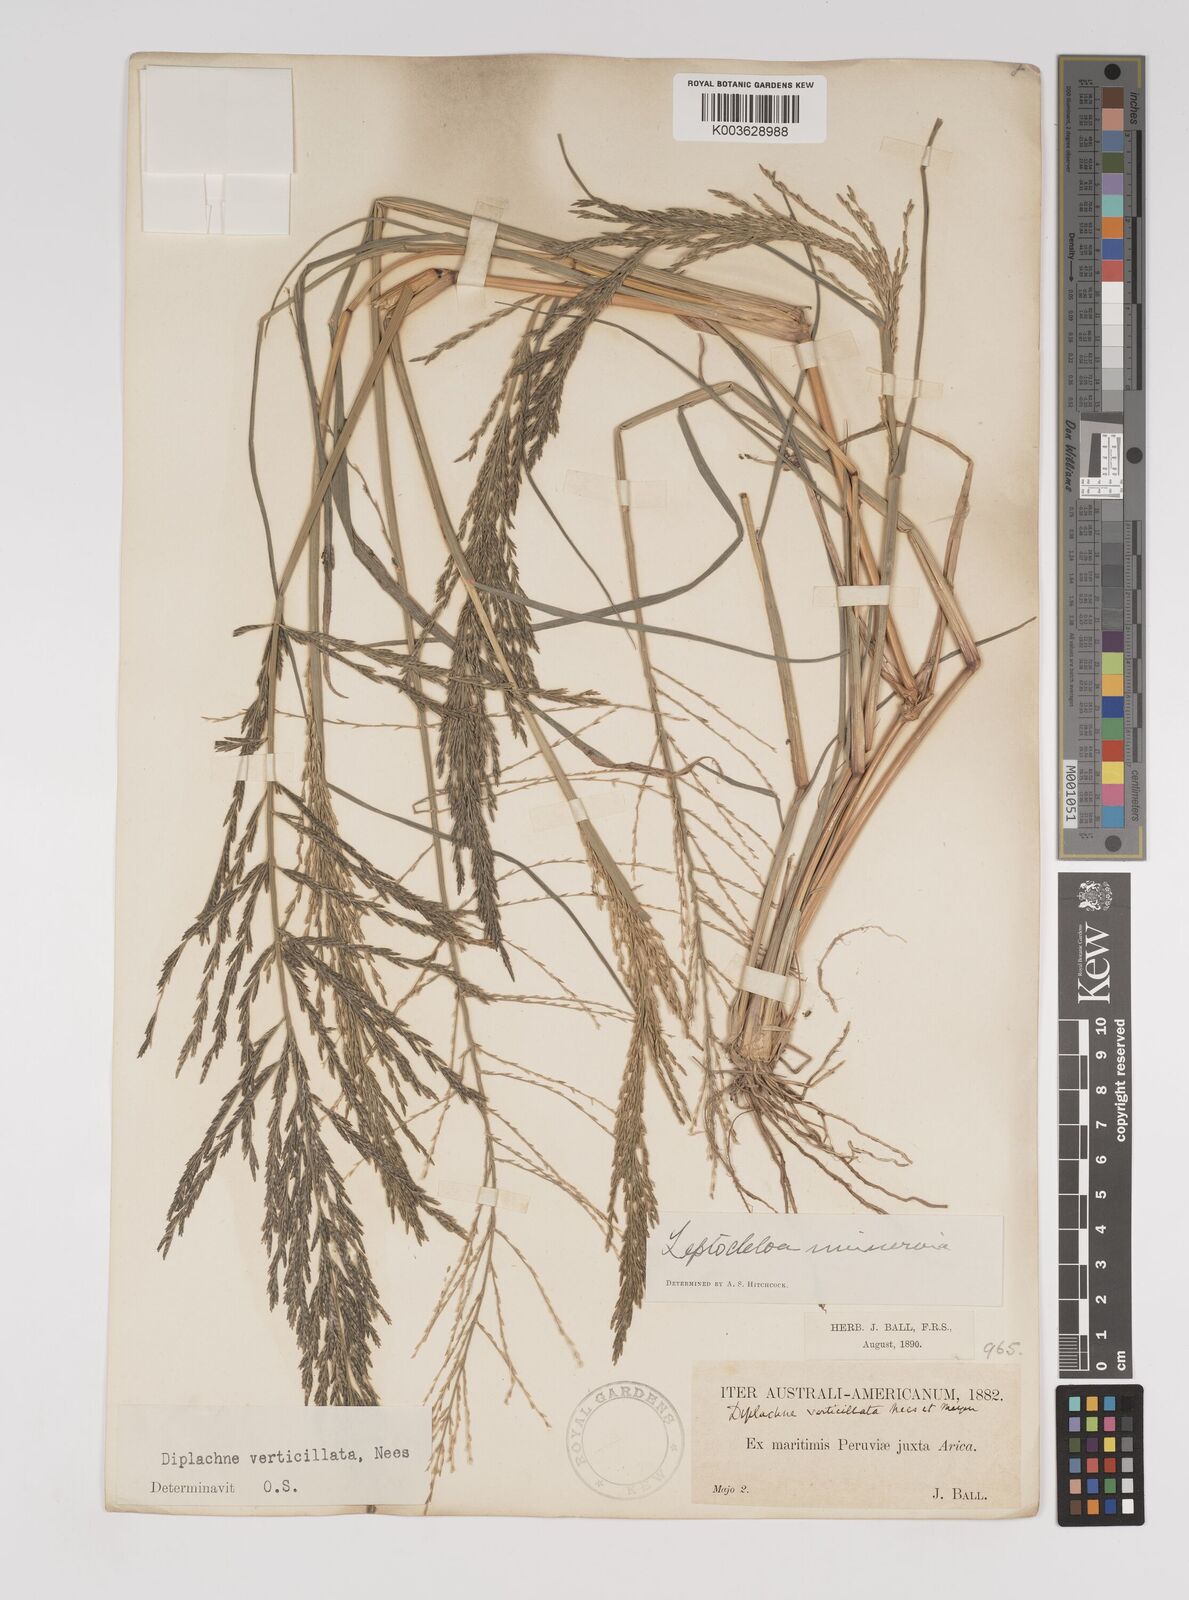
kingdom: Plantae
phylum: Tracheophyta
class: Liliopsida
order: Poales
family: Poaceae
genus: Diplachne
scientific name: Diplachne fusca
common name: Brown beetle grass
